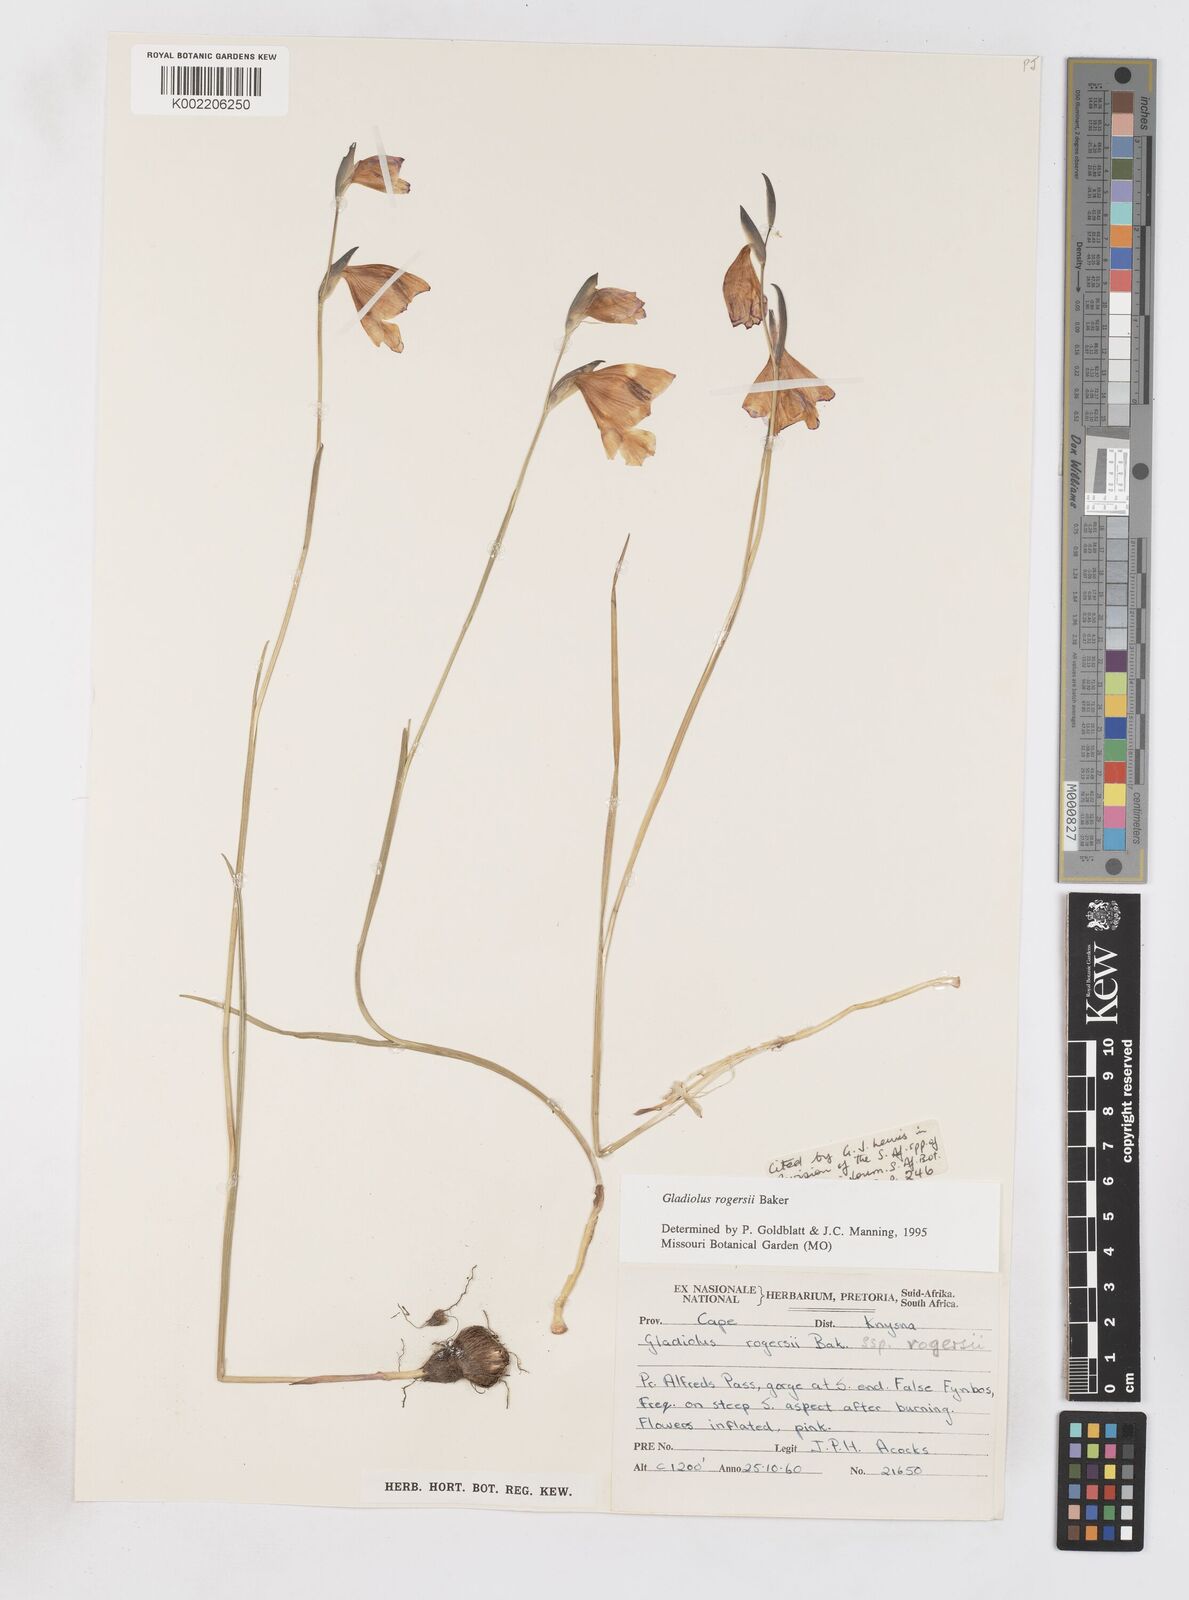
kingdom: Plantae
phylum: Tracheophyta
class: Liliopsida
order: Asparagales
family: Iridaceae
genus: Gladiolus
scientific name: Gladiolus rogersii
